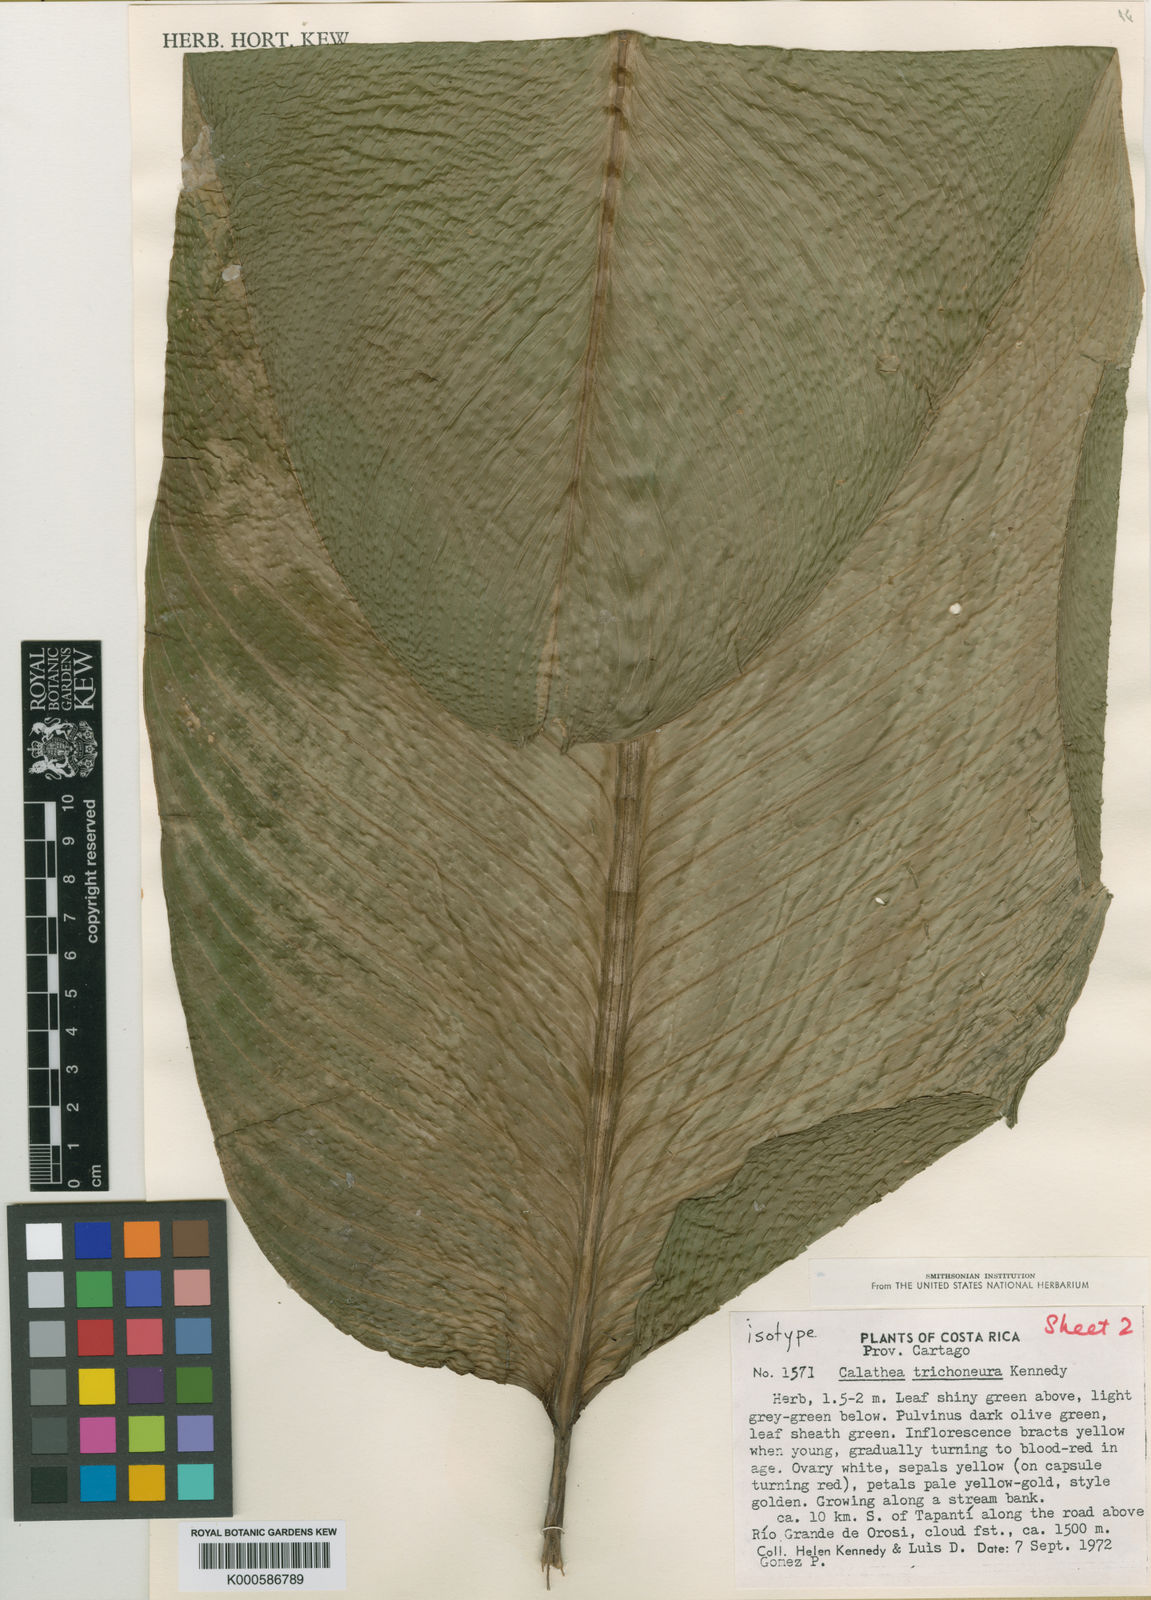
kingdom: Plantae
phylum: Tracheophyta
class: Liliopsida
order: Zingiberales
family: Marantaceae
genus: Goeppertia
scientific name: Goeppertia trichoneura
